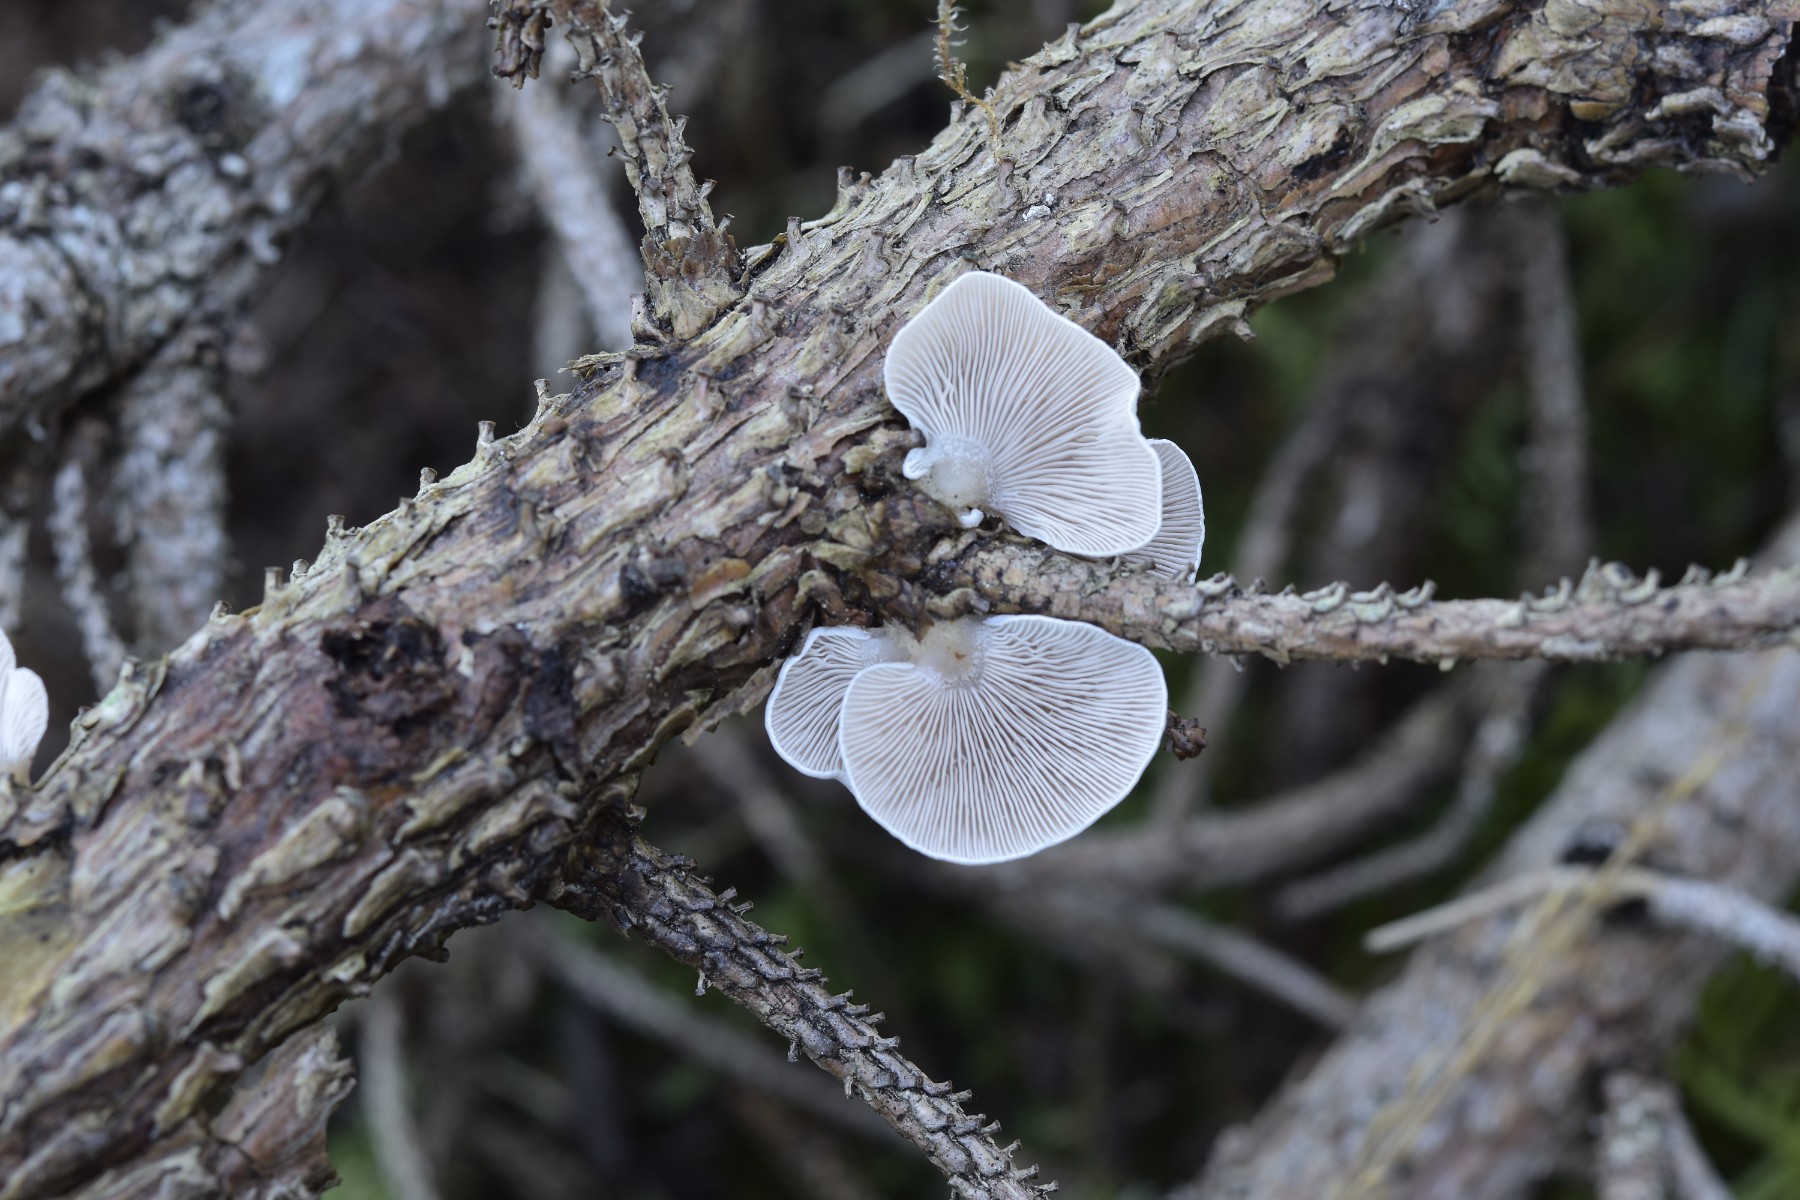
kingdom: Fungi
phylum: Basidiomycota
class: Agaricomycetes
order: Agaricales
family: Mycenaceae
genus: Panellus
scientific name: Panellus mitis
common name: mild epaulethat
